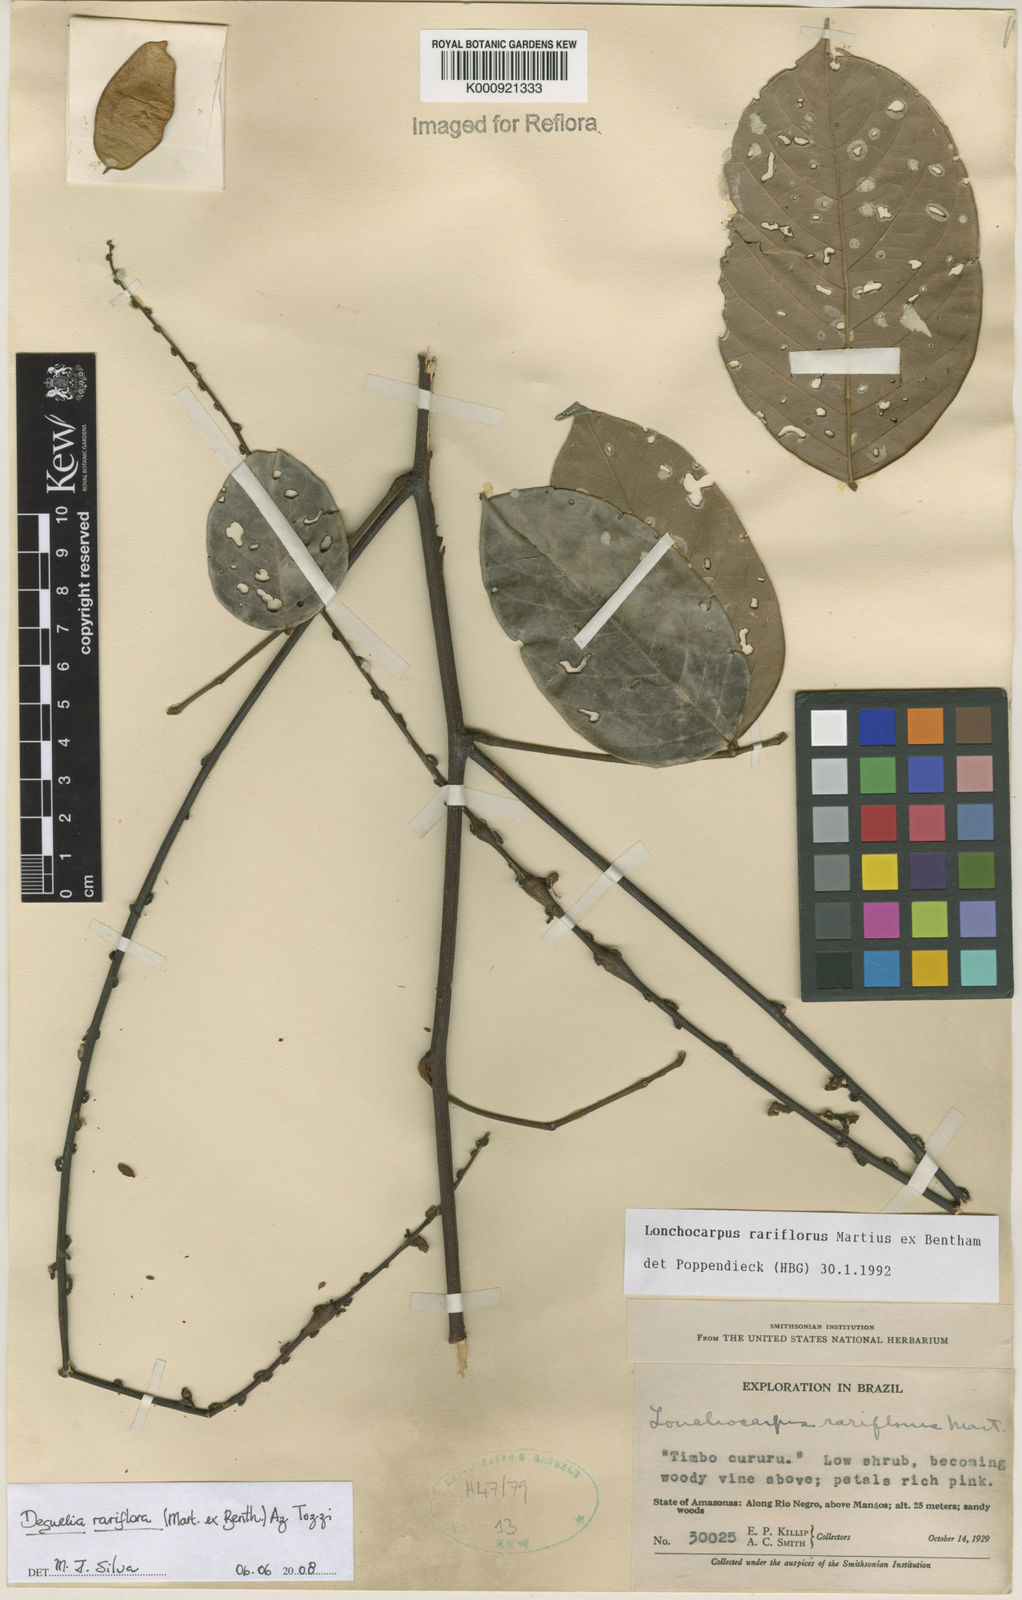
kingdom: Plantae
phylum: Tracheophyta
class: Magnoliopsida
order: Fabales
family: Fabaceae
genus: Deguelia
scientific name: Deguelia
